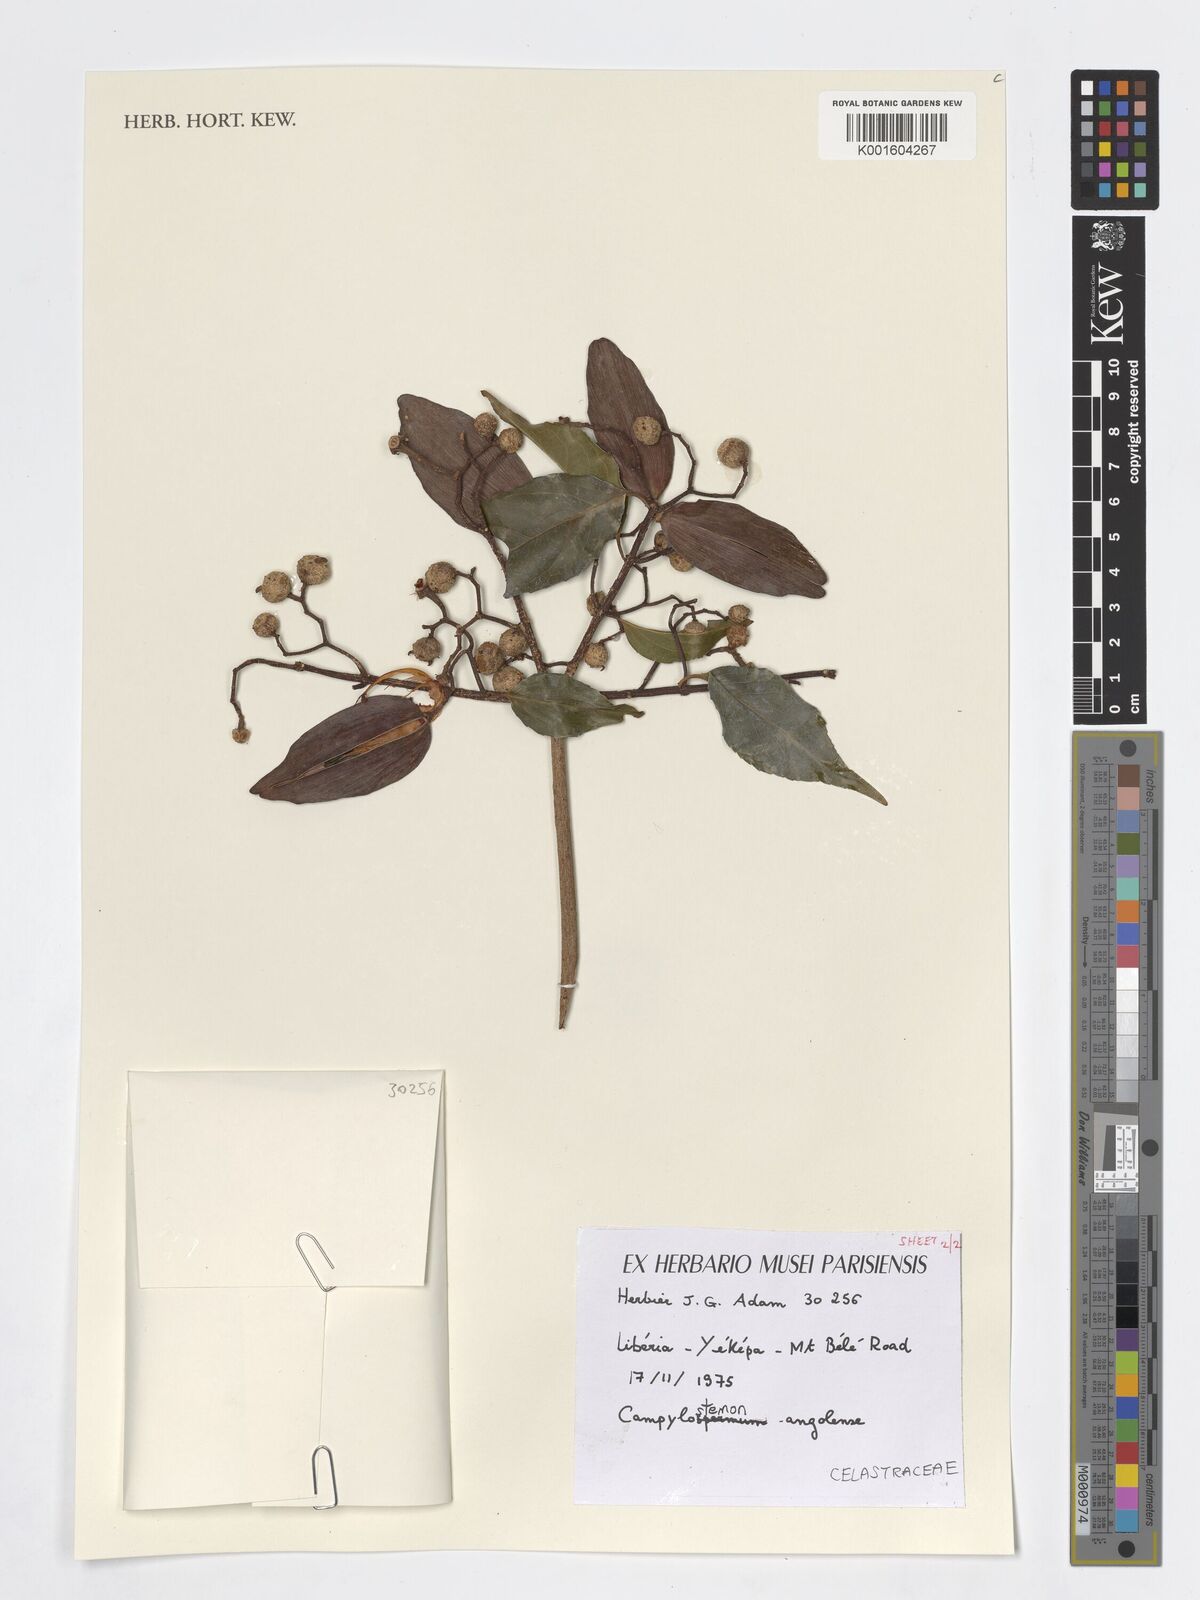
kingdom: Plantae
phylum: Tracheophyta
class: Magnoliopsida
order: Celastrales
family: Celastraceae
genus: Campylostemon
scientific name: Campylostemon
